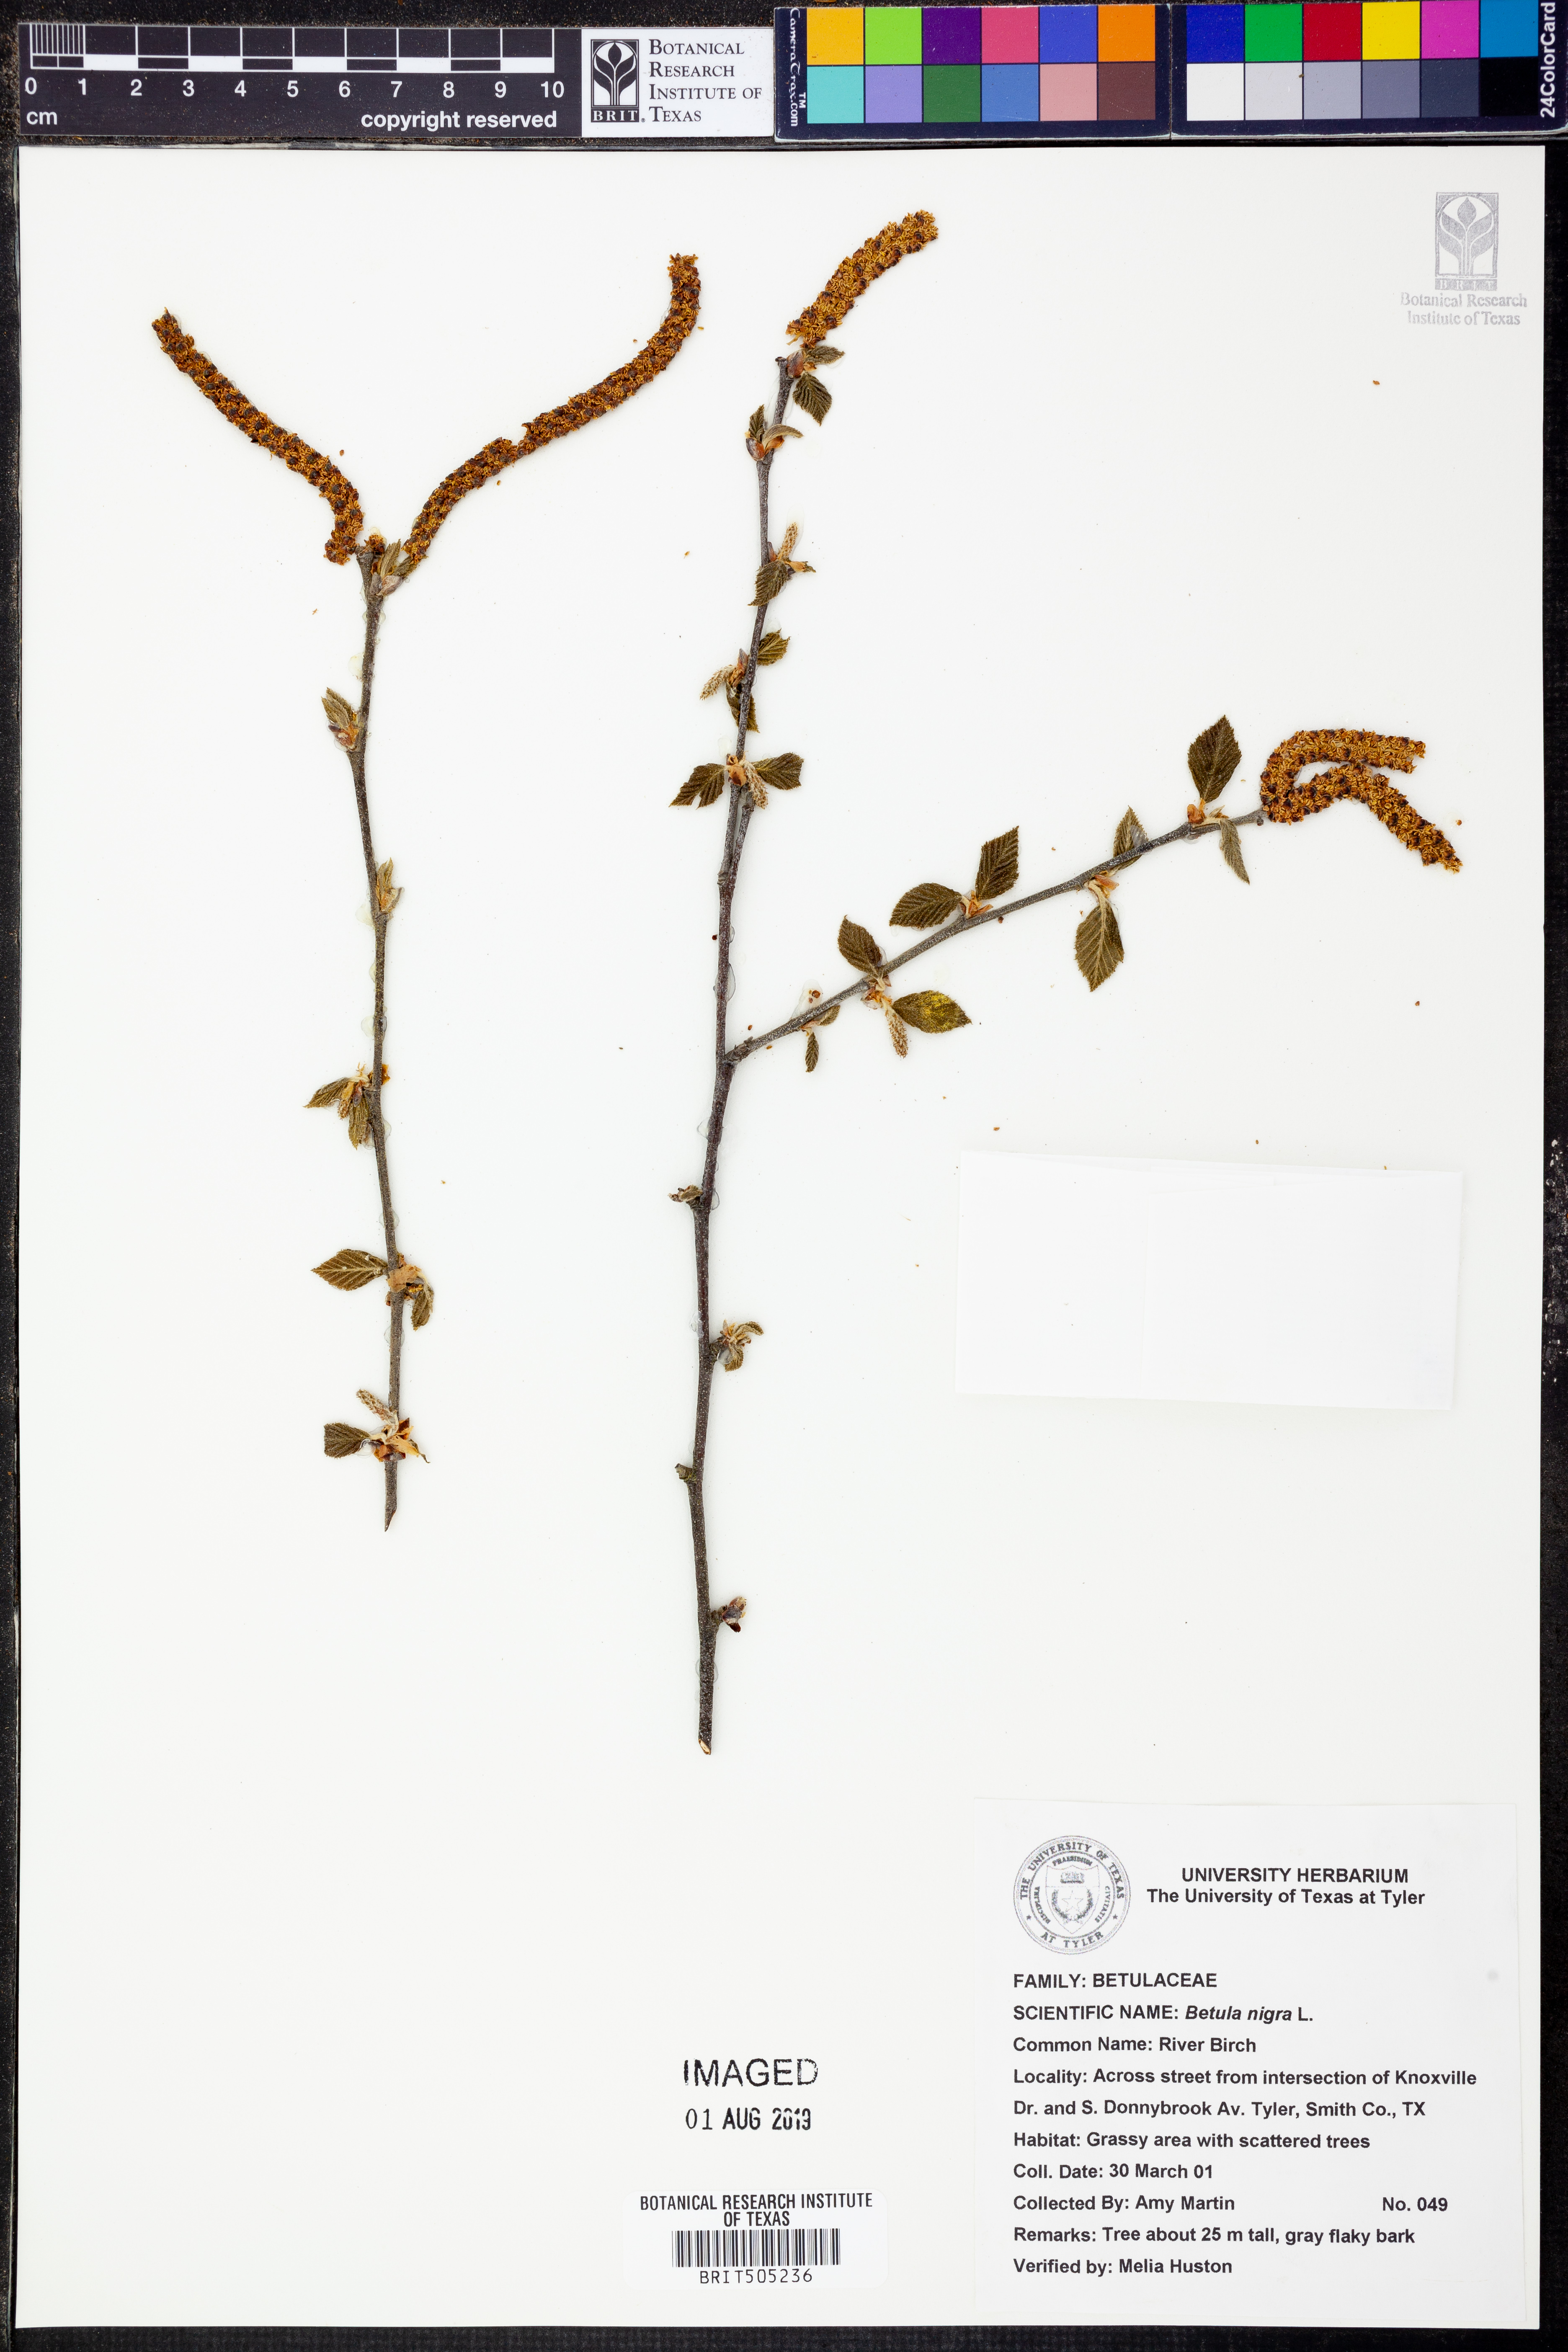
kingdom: Plantae
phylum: Tracheophyta
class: Magnoliopsida
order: Fagales
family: Betulaceae
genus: Betula
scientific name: Betula nigra
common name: Black birch
